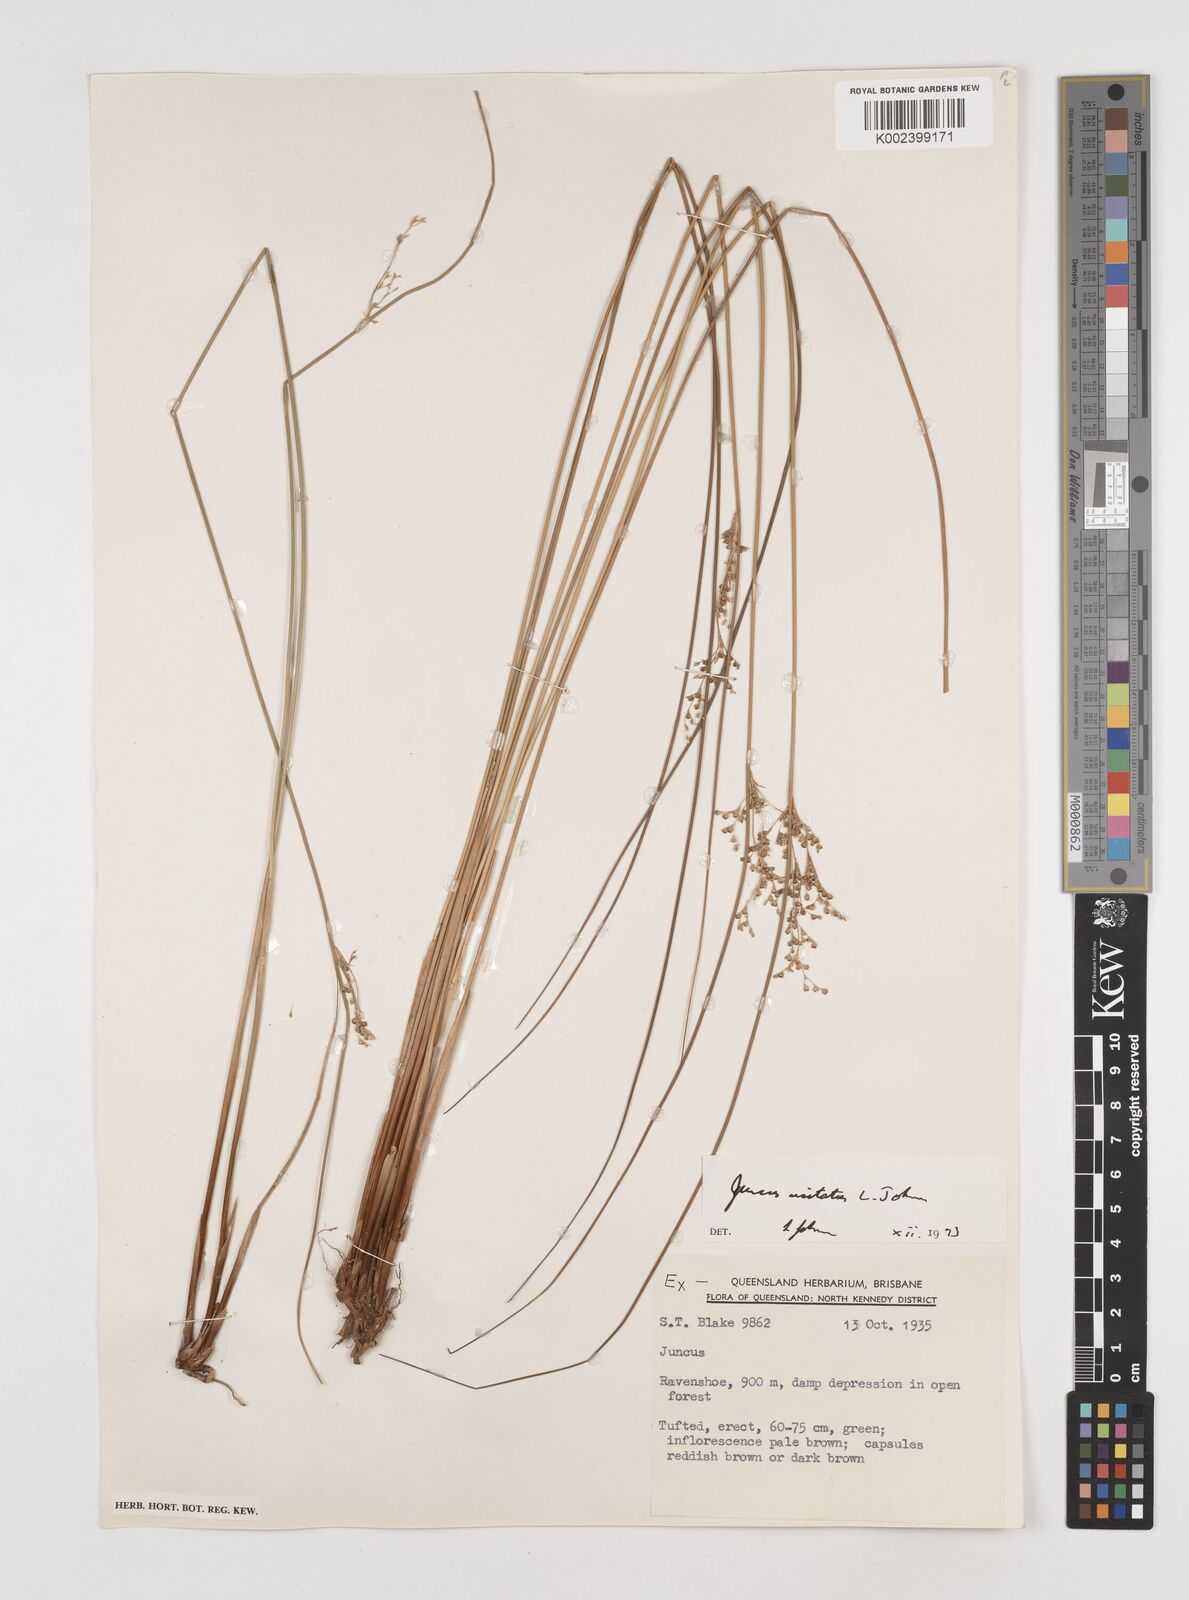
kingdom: Plantae
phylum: Tracheophyta
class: Liliopsida
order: Poales
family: Juncaceae
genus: Juncus
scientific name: Juncus usitatus
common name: Rush
